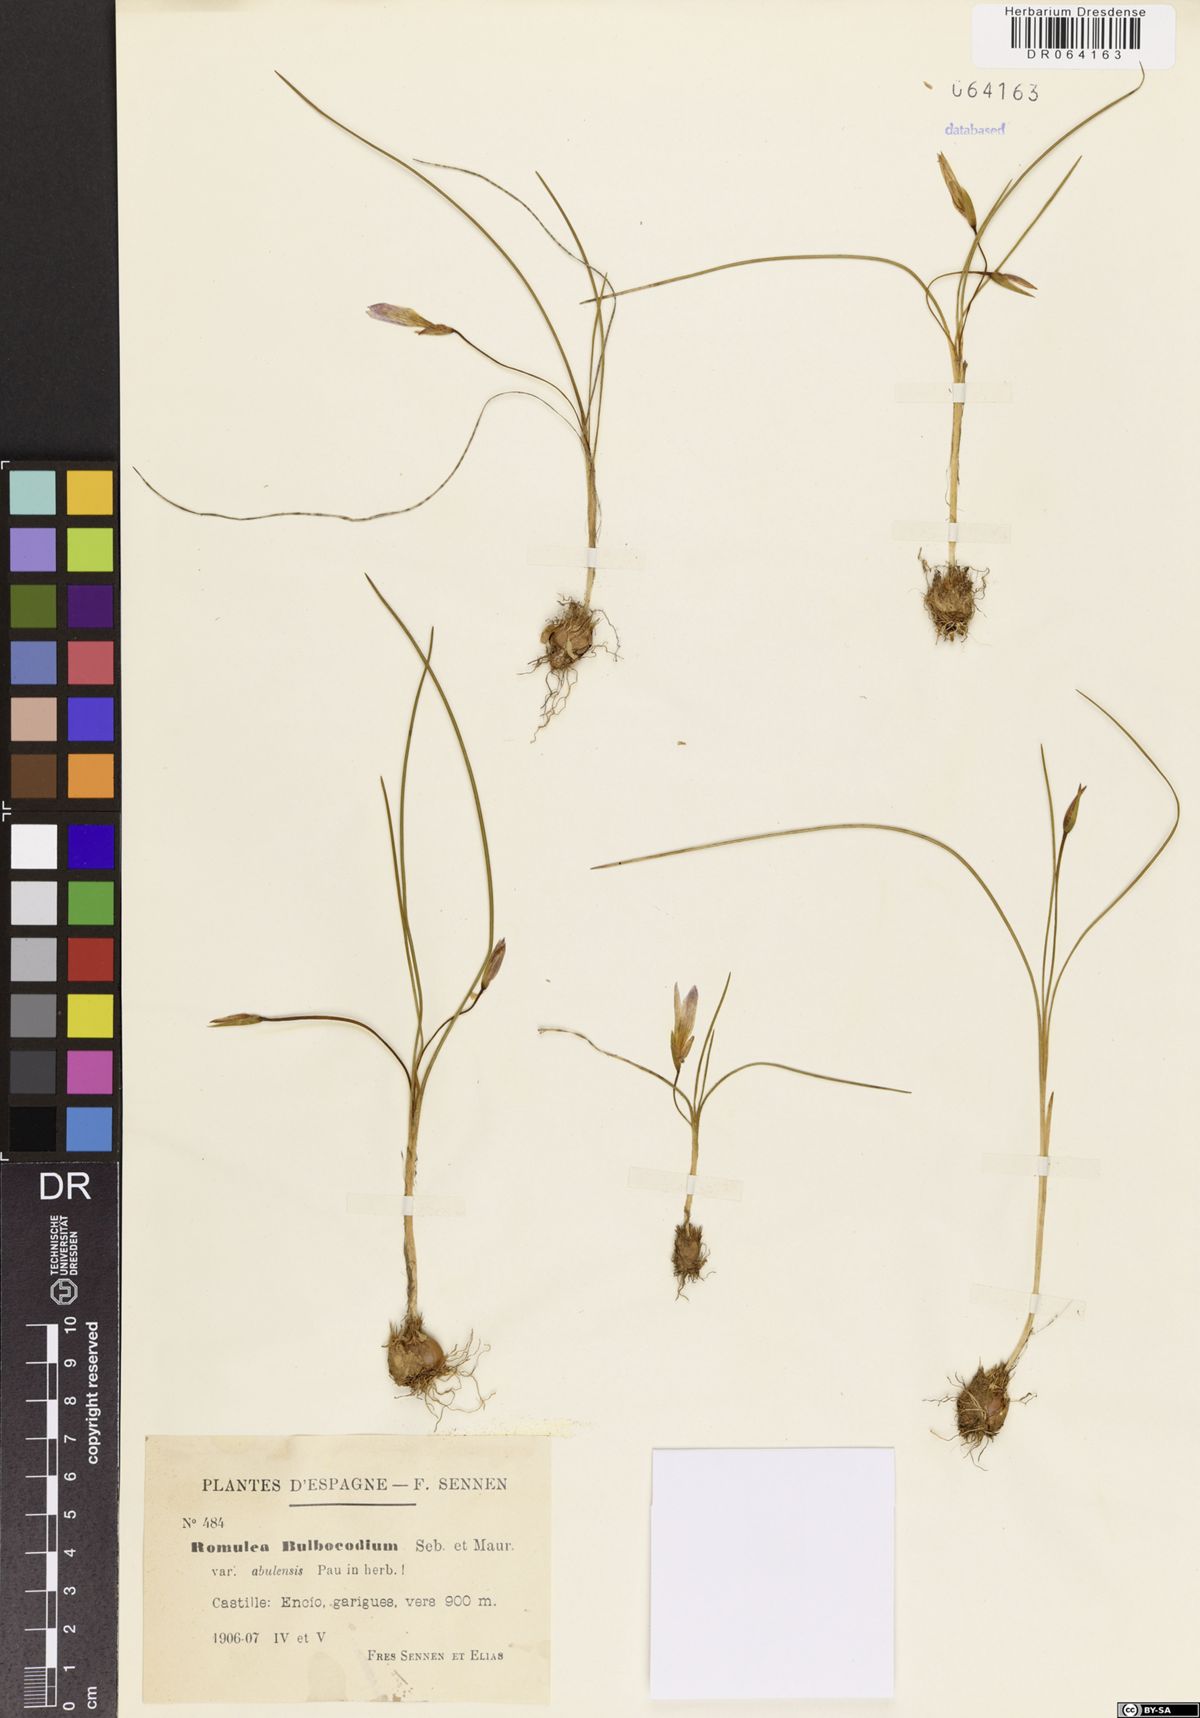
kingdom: Plantae
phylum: Tracheophyta
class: Liliopsida
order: Asparagales
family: Iridaceae
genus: Romulea
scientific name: Romulea bulbocodium
